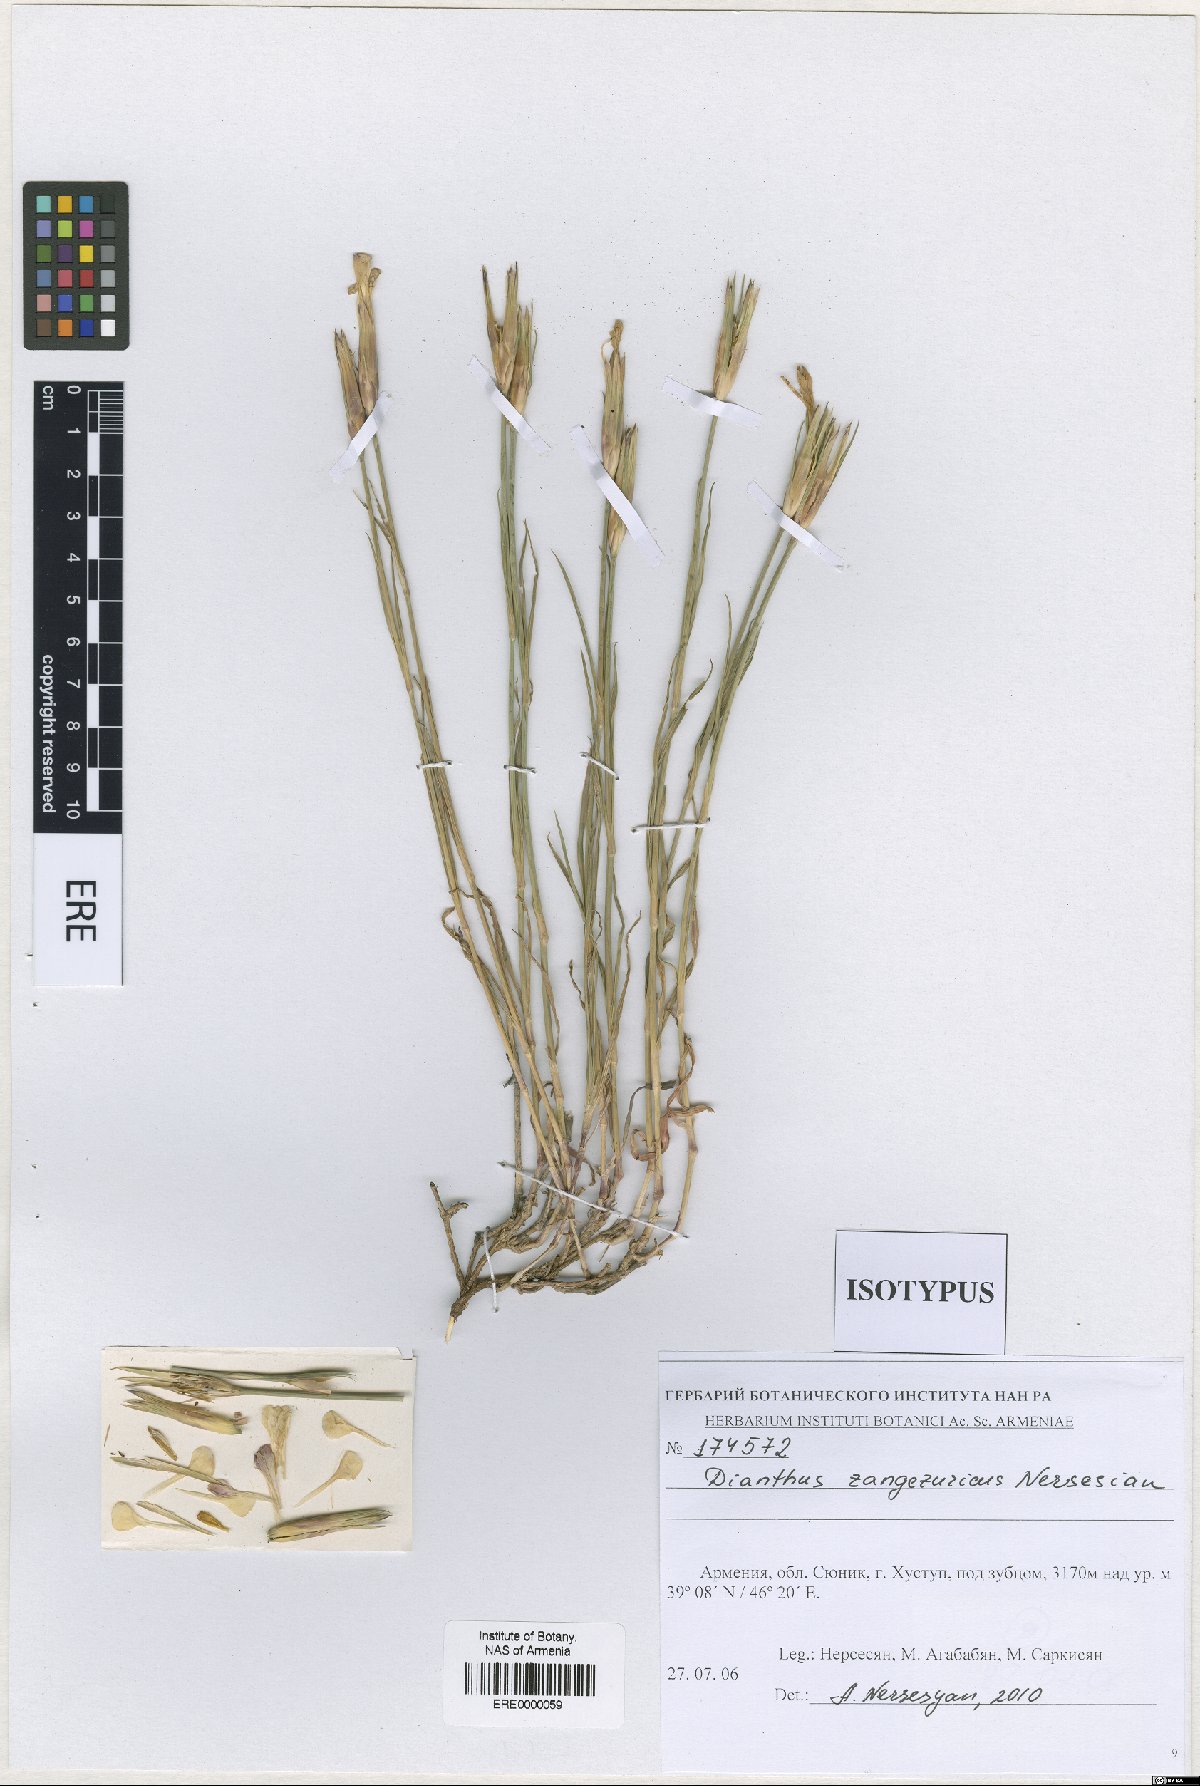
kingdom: Plantae
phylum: Tracheophyta
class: Magnoliopsida
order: Caryophyllales
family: Caryophyllaceae
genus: Dianthus
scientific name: Dianthus zangezuricus
